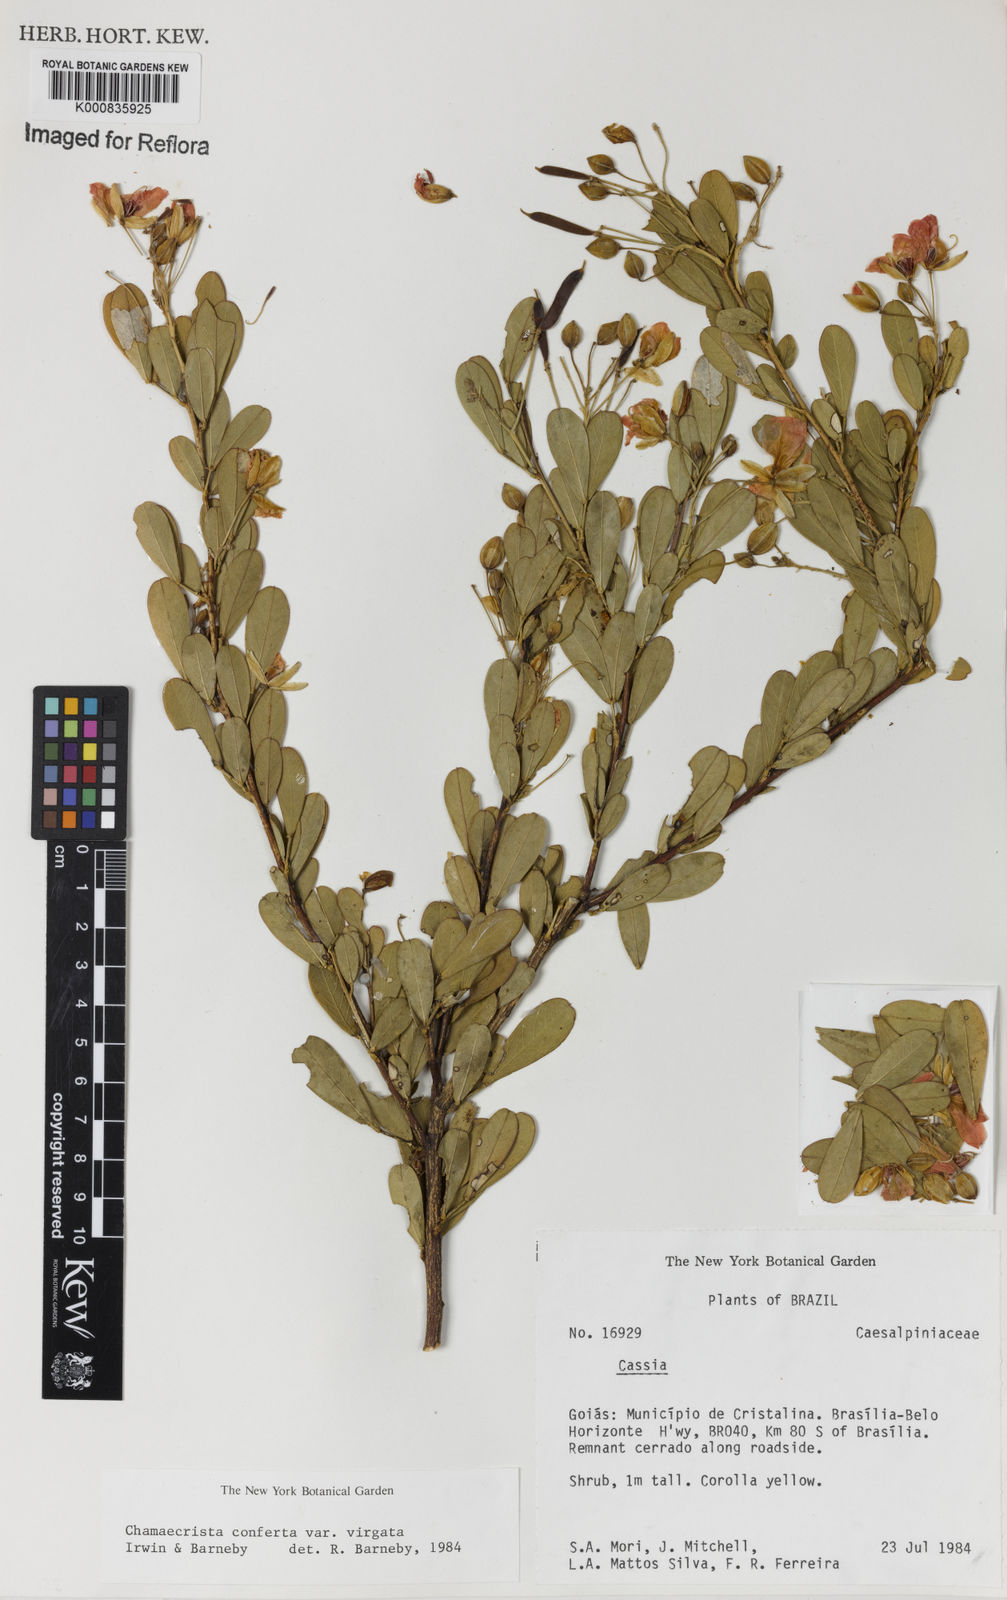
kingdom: Plantae
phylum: Tracheophyta
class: Magnoliopsida
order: Fabales
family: Fabaceae
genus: Chamaecrista
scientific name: Chamaecrista conferta
